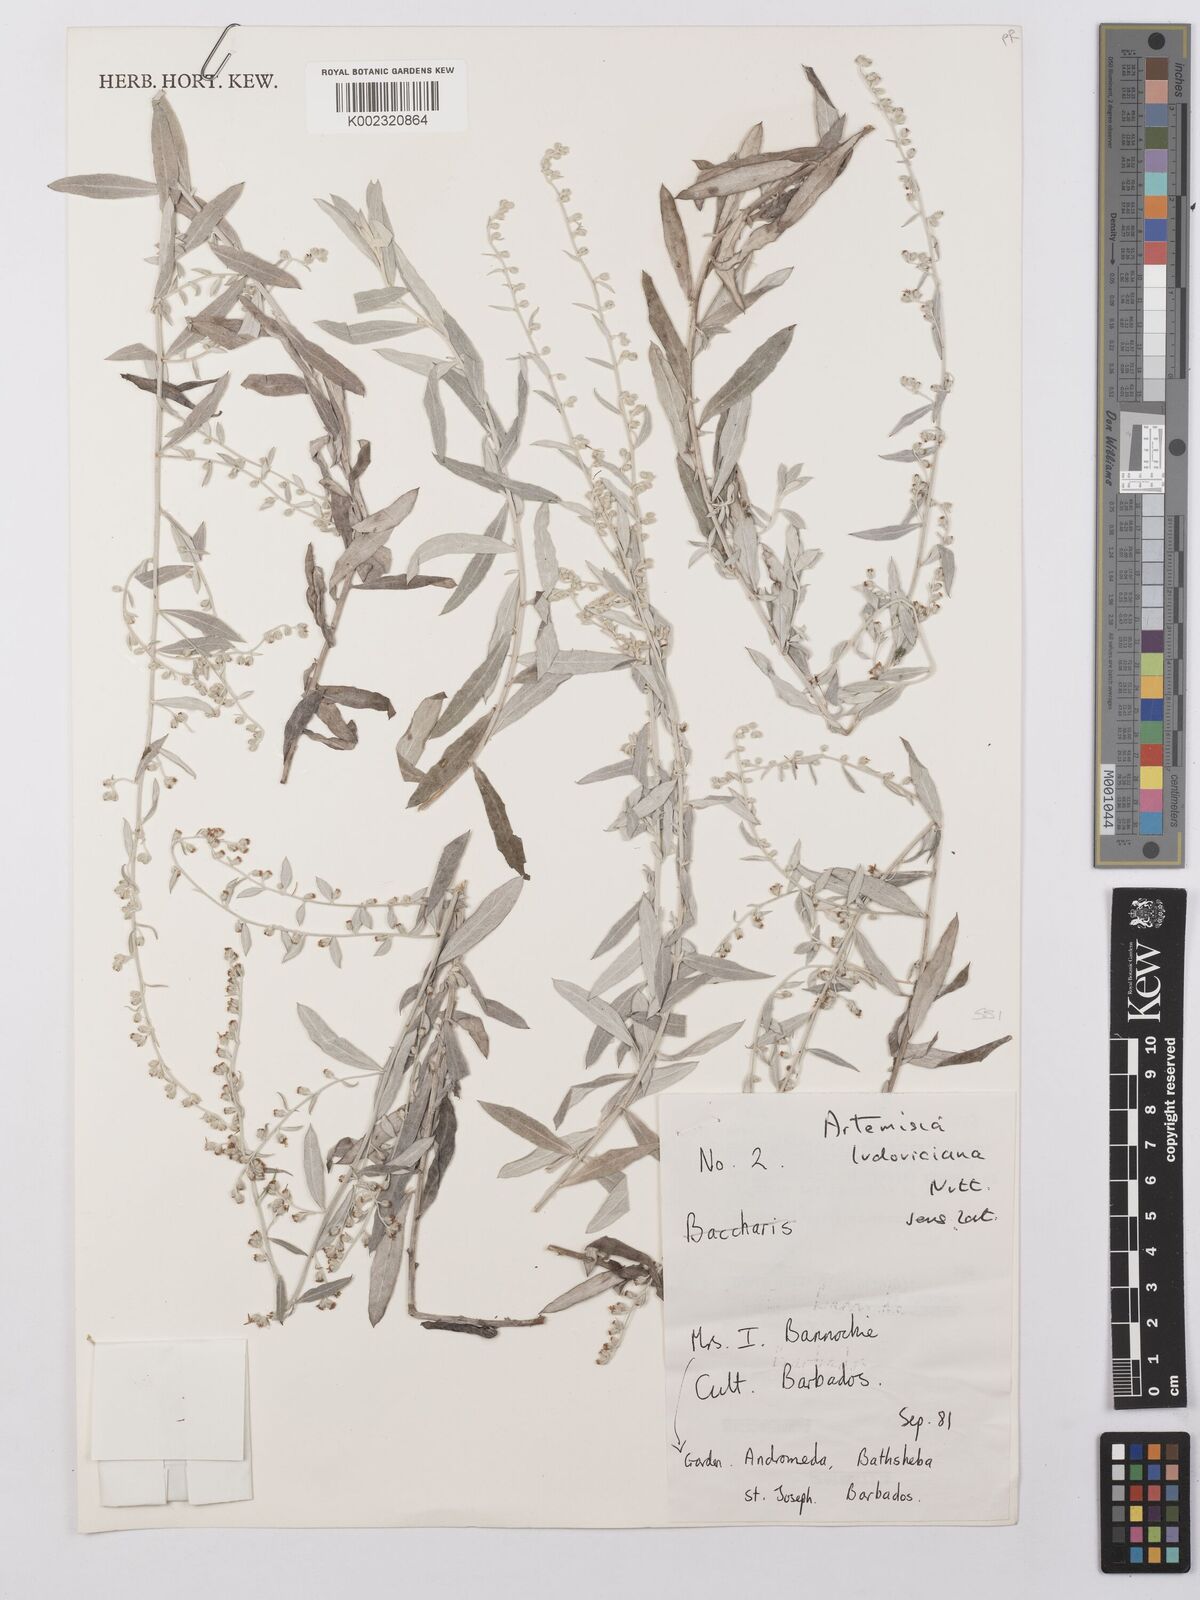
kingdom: Plantae
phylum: Tracheophyta
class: Magnoliopsida
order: Asterales
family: Asteraceae
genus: Artemisia
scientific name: Artemisia ludoviciana
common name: Western mugwort
